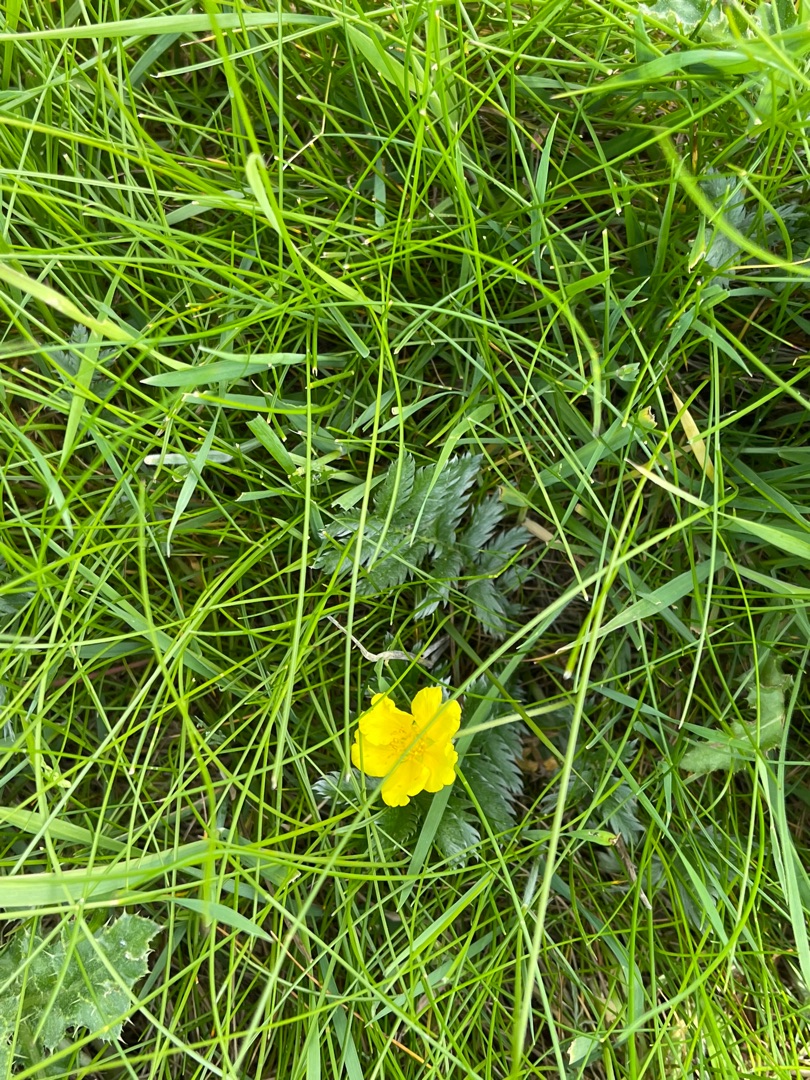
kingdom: Plantae
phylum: Tracheophyta
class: Magnoliopsida
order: Rosales
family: Rosaceae
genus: Argentina
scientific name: Argentina anserina
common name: Gåsepotentil
